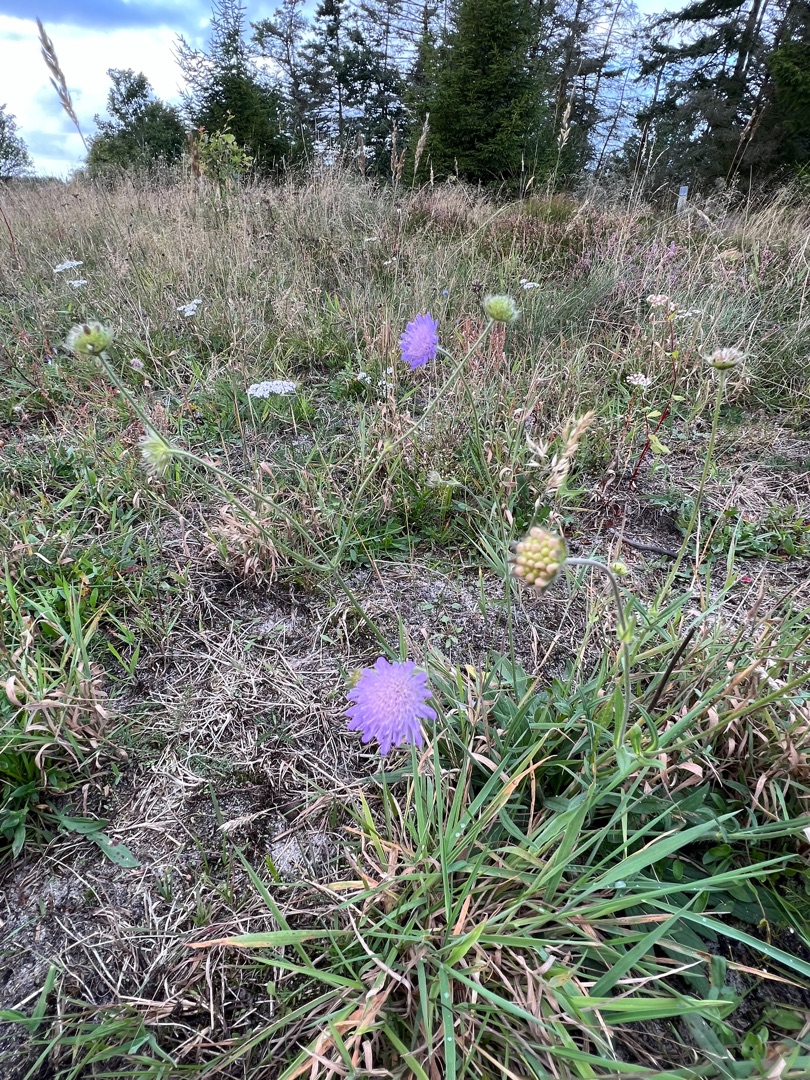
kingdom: Plantae
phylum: Tracheophyta
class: Magnoliopsida
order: Dipsacales
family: Caprifoliaceae
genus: Knautia
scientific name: Knautia arvensis
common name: Blåhat
